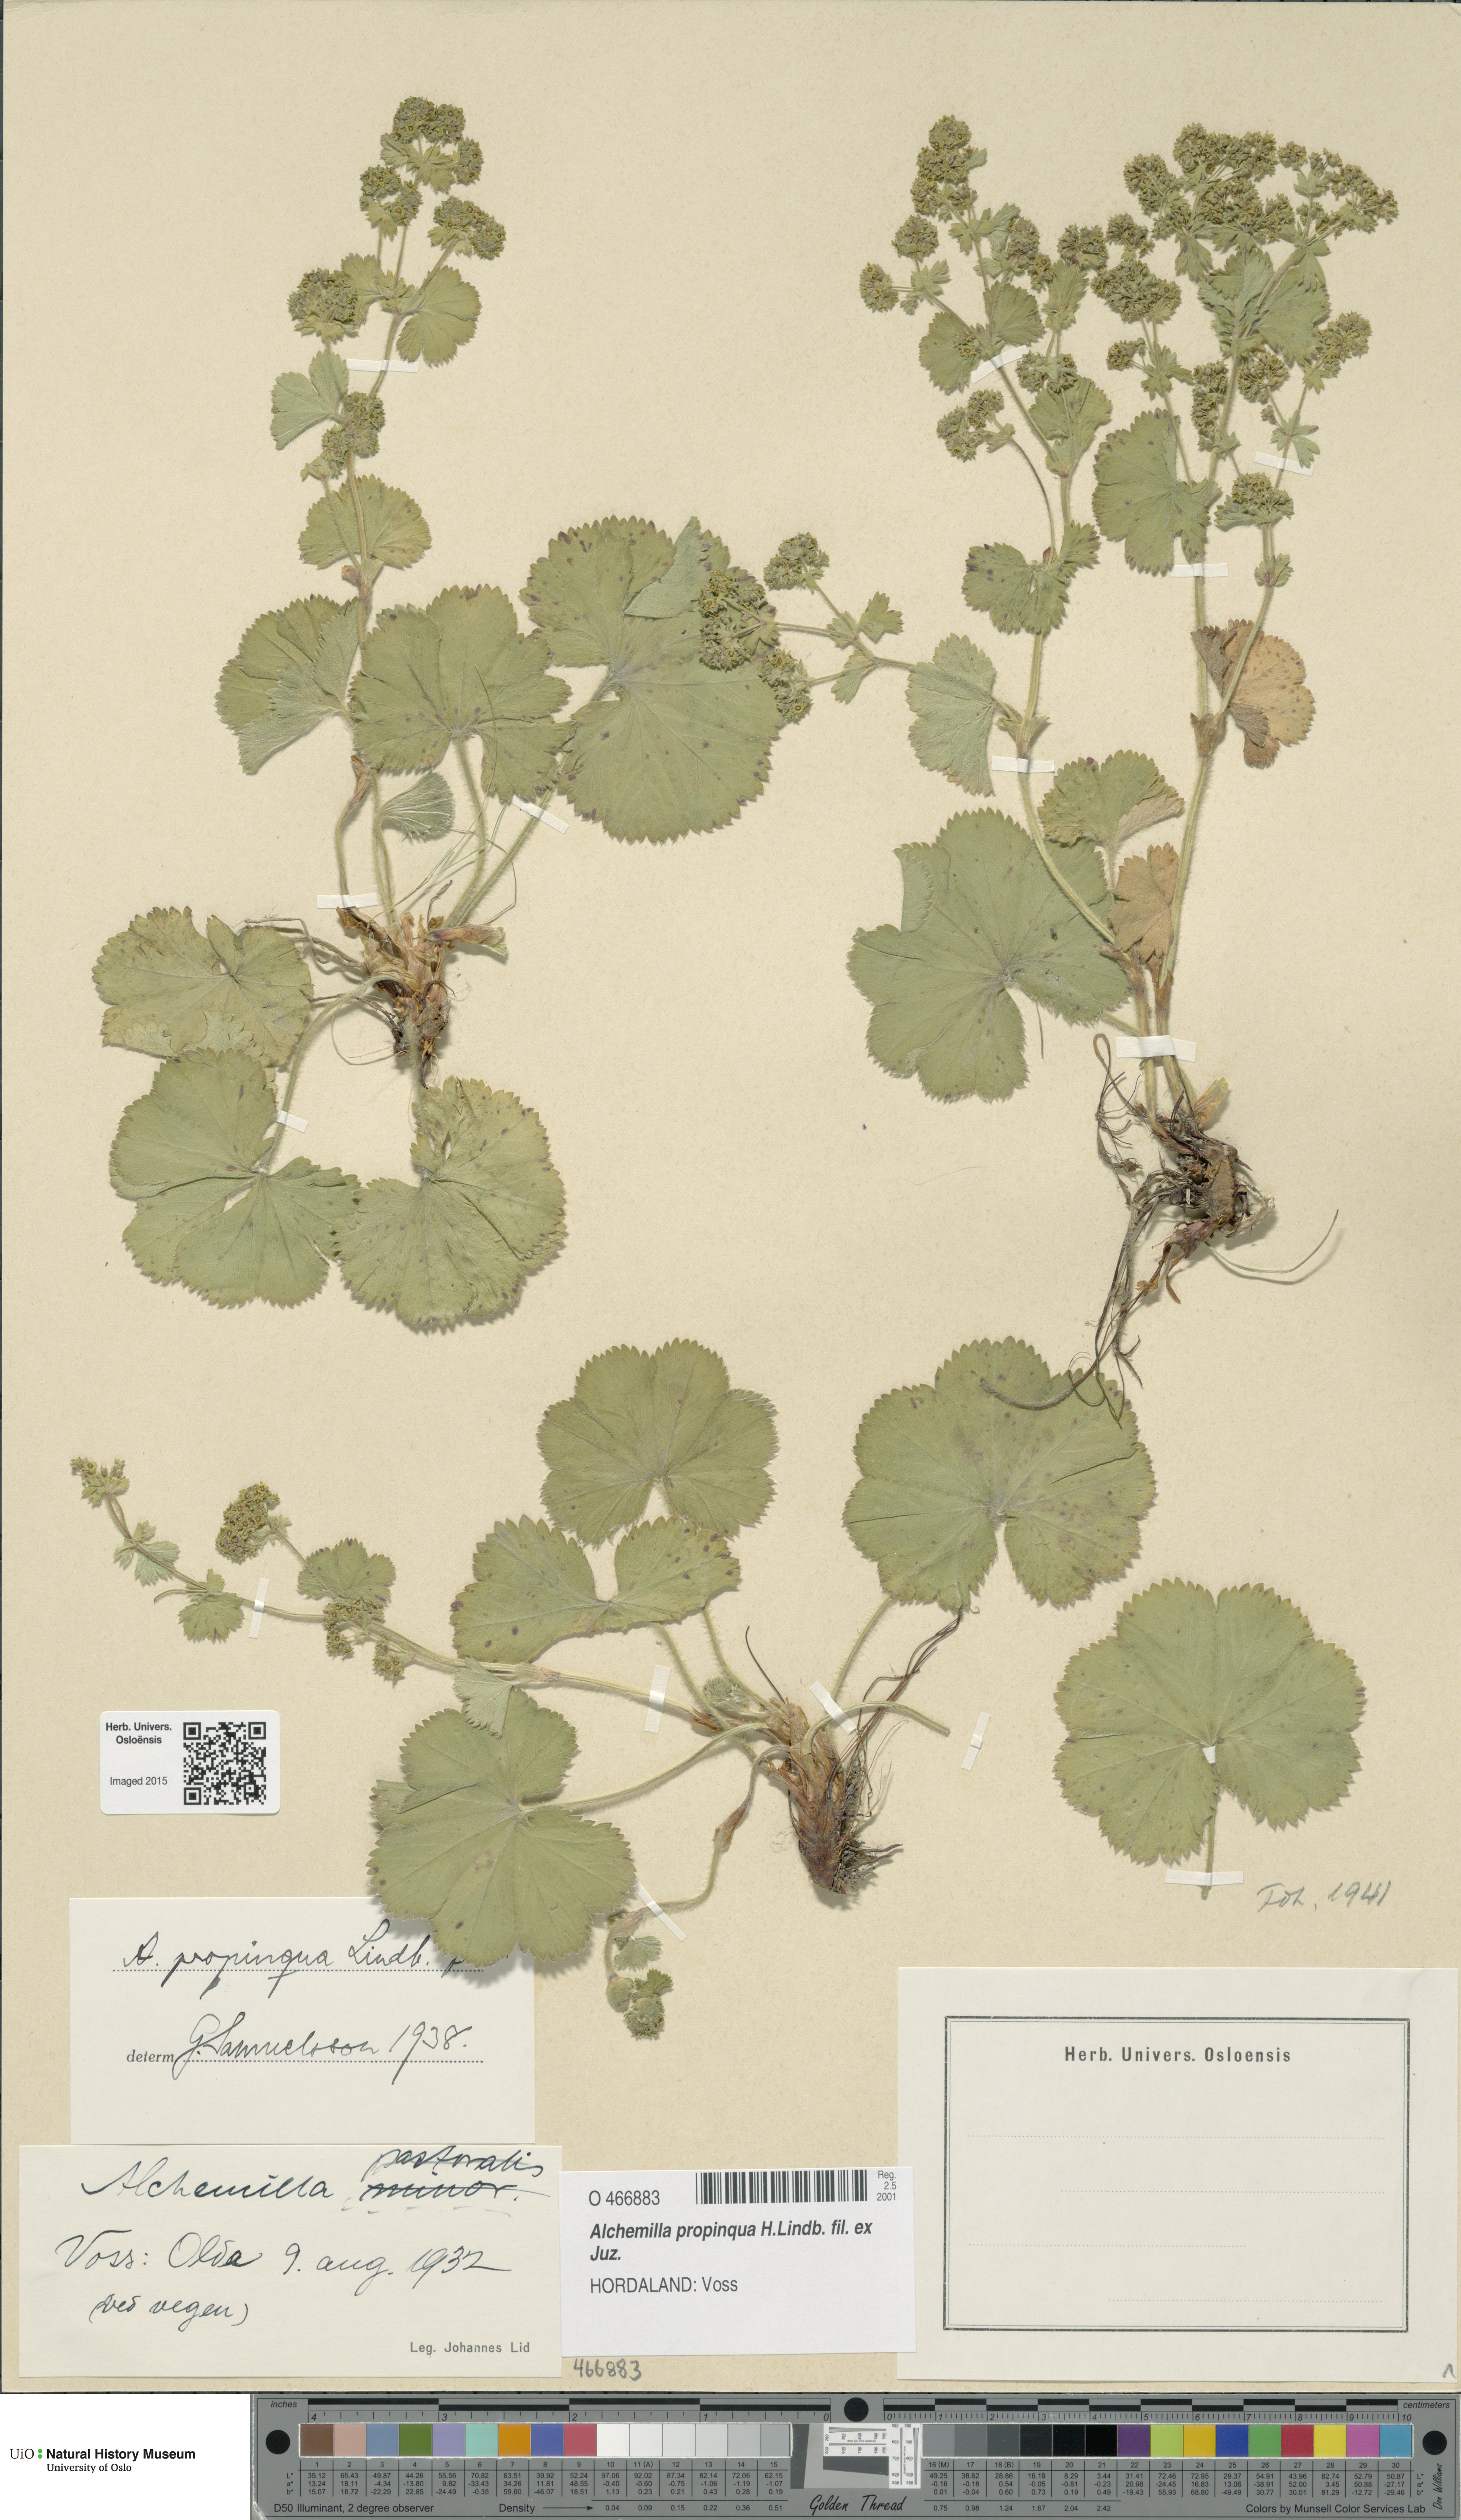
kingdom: Plantae
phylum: Tracheophyta
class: Magnoliopsida
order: Rosales
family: Rosaceae
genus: Alchemilla
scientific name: Alchemilla propinqua
